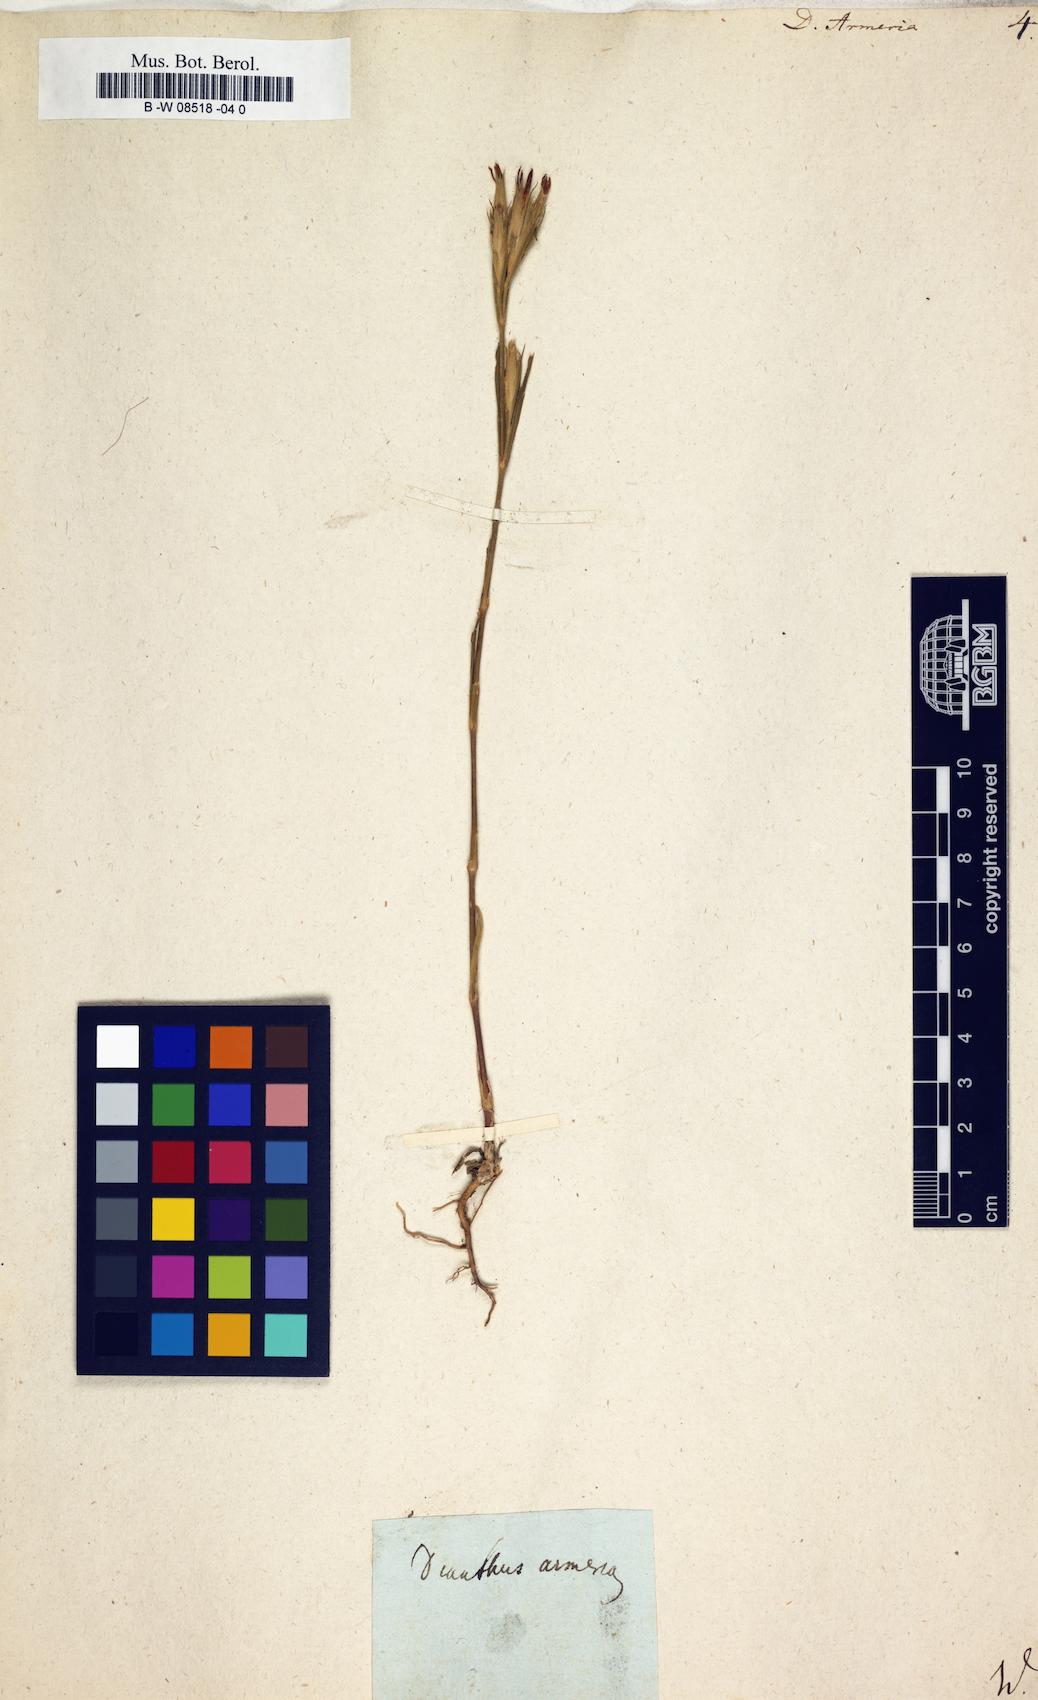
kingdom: Plantae
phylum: Tracheophyta
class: Magnoliopsida
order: Caryophyllales
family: Caryophyllaceae
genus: Dianthus
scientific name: Dianthus armeria
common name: Deptford pink
